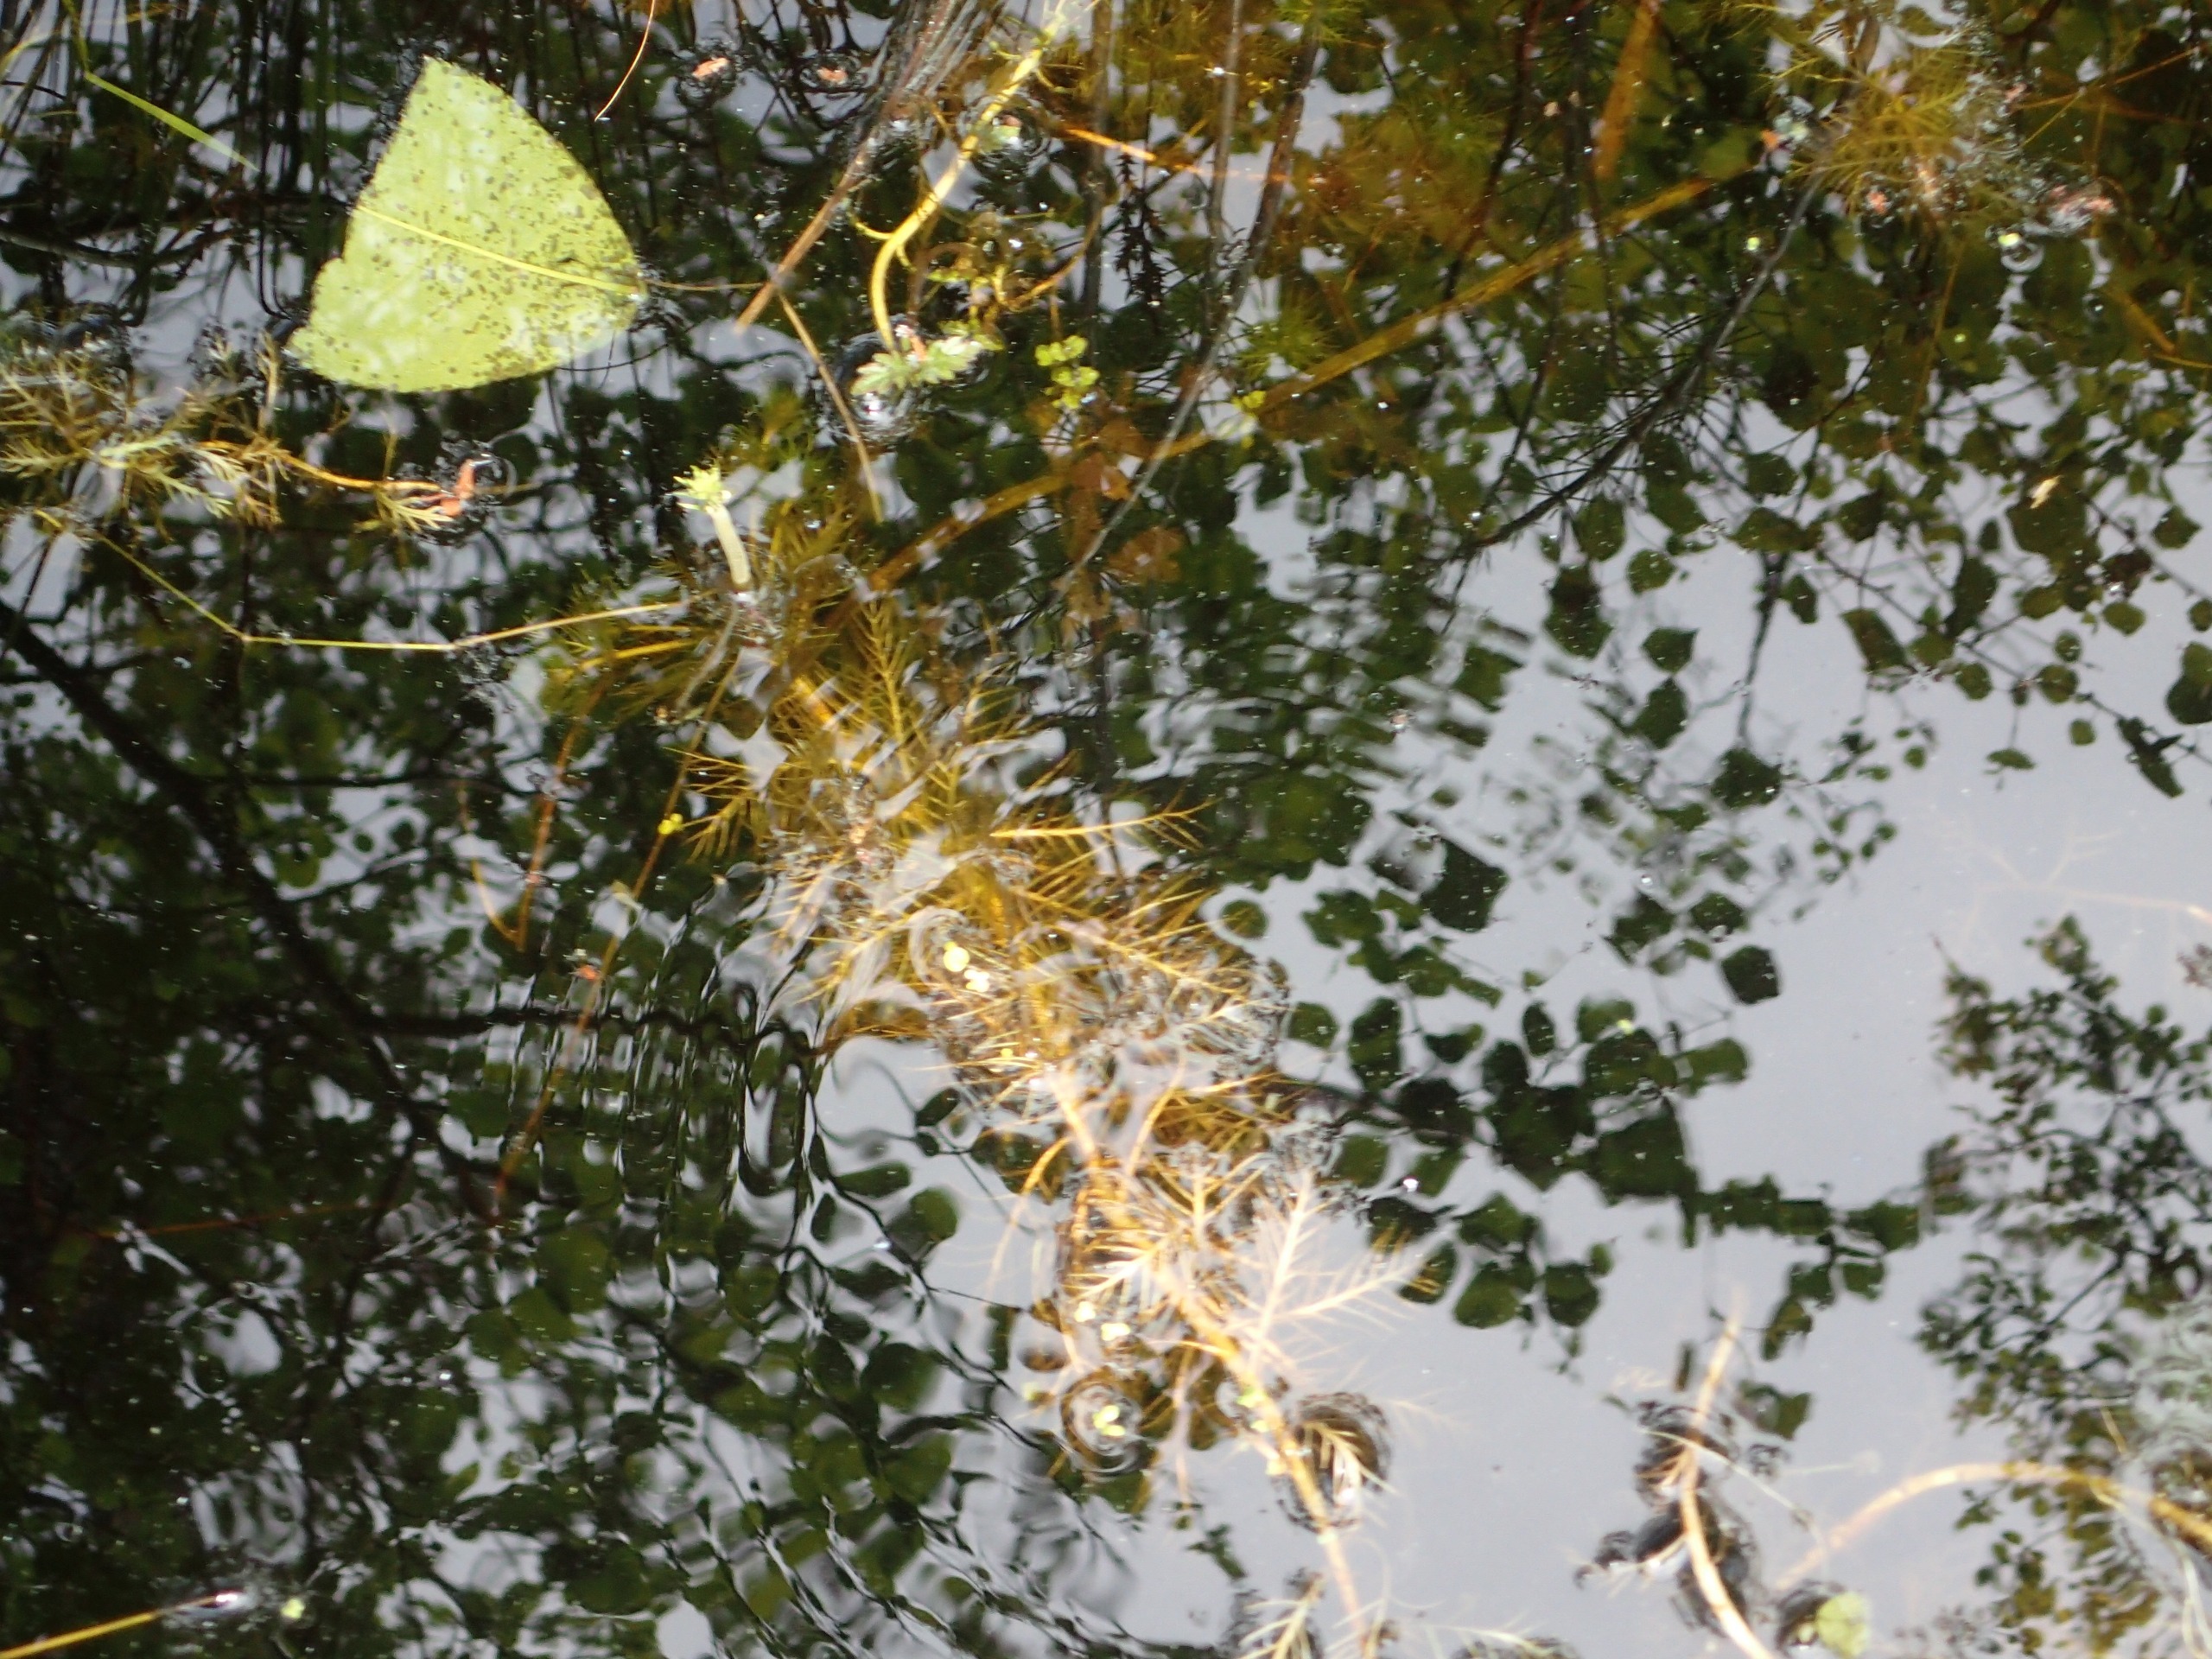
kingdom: Plantae
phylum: Tracheophyta
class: Magnoliopsida
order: Ericales
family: Primulaceae
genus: Hottonia
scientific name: Hottonia palustris
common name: Vandrøllike
